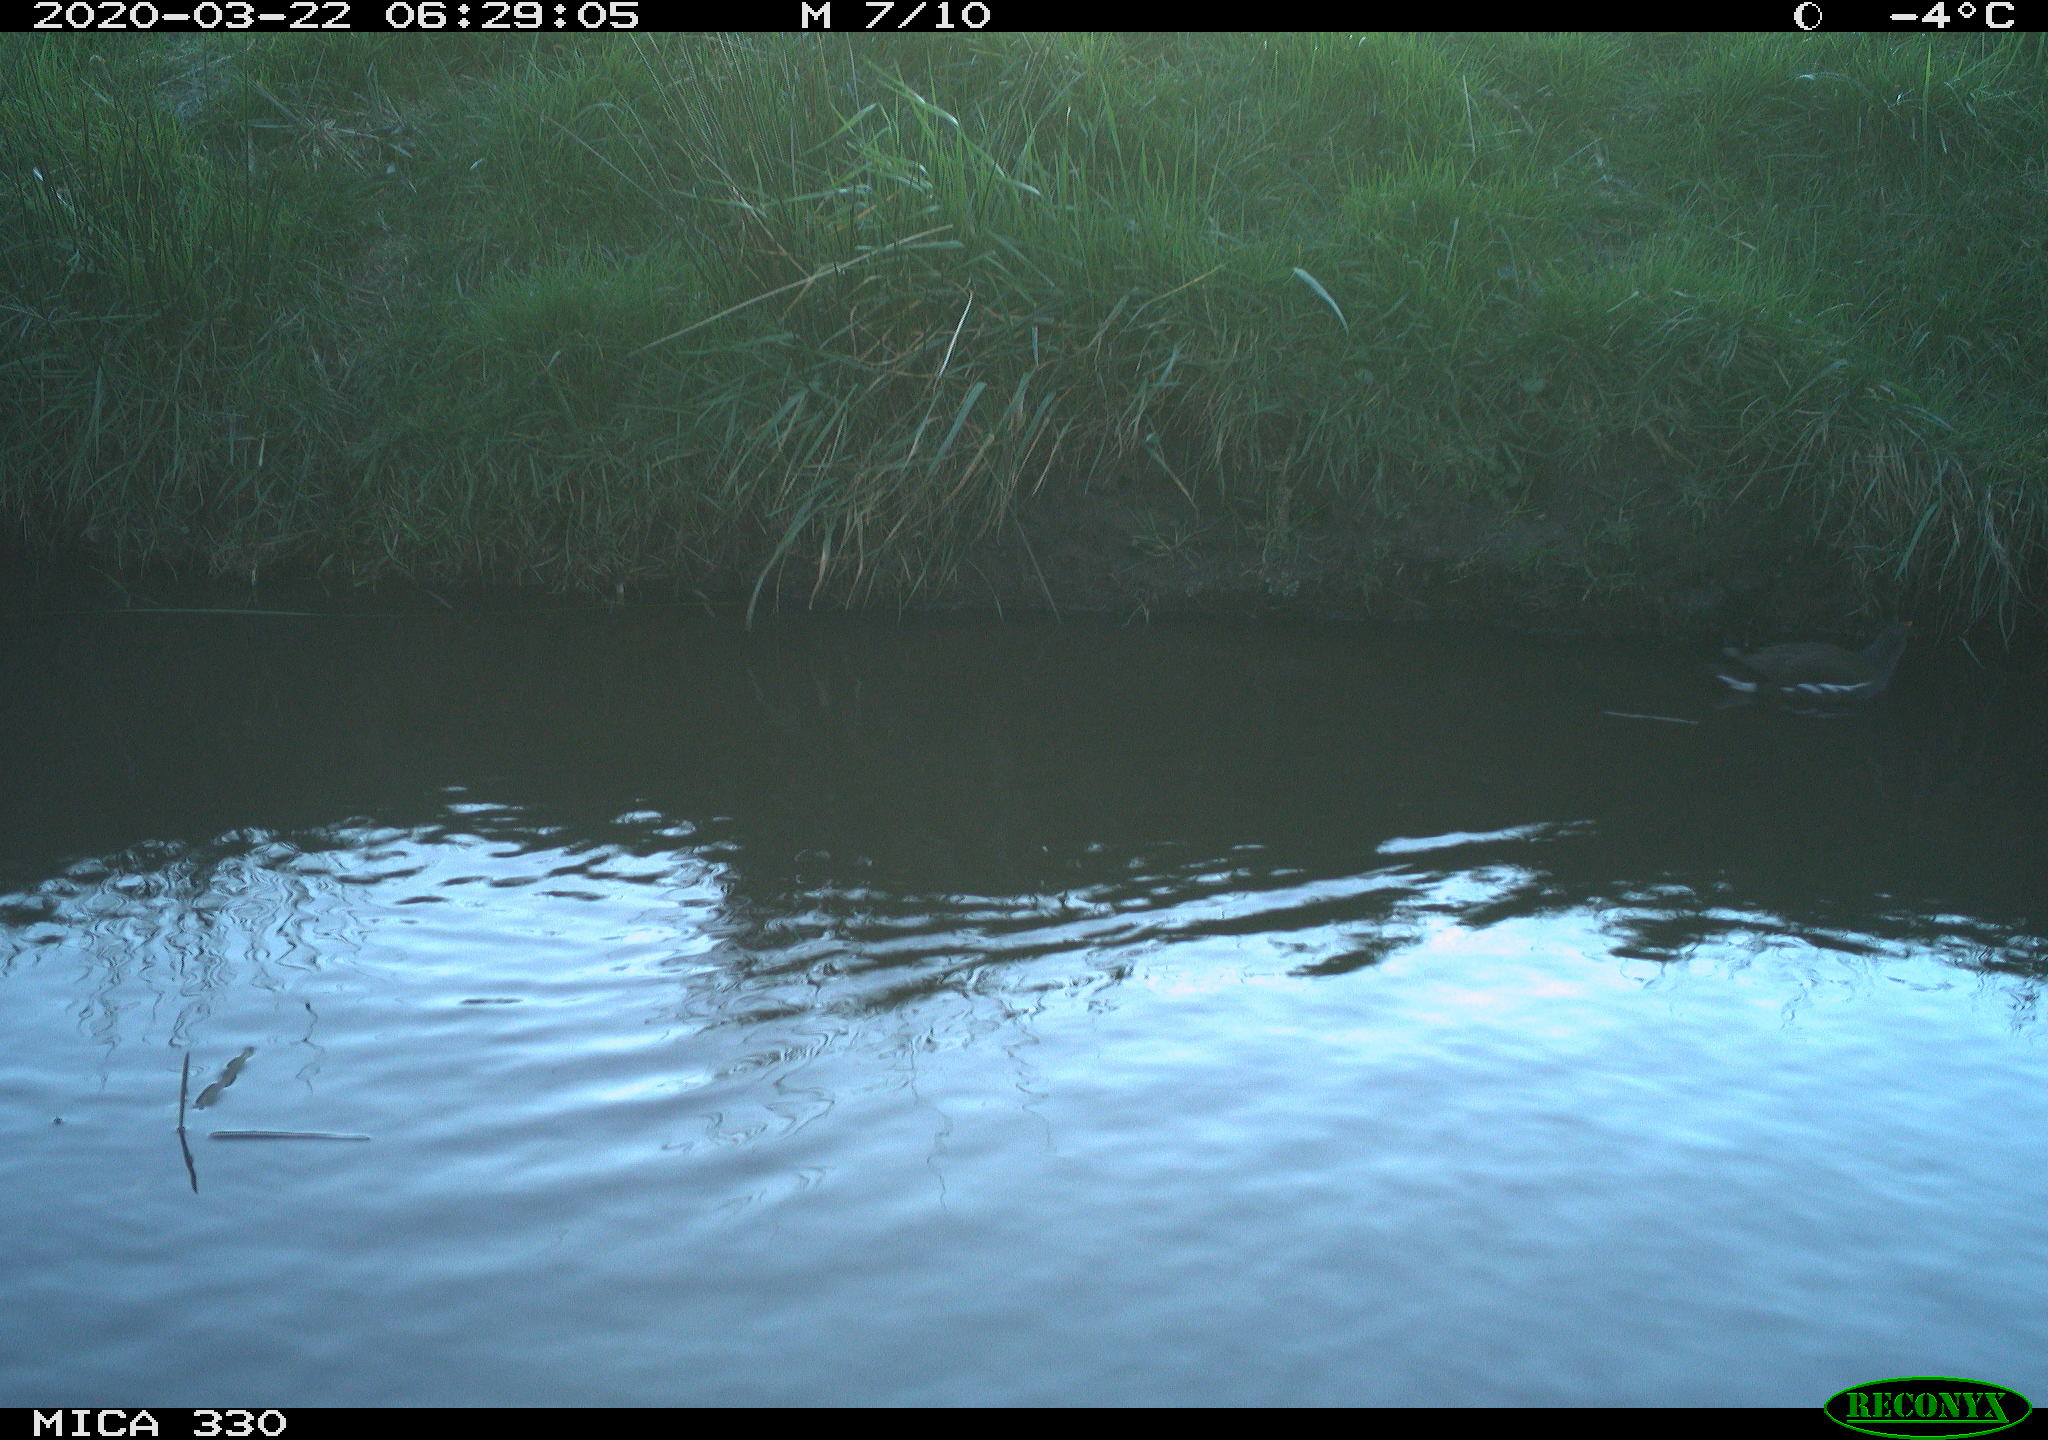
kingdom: Animalia
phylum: Chordata
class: Aves
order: Gruiformes
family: Rallidae
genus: Gallinula
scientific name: Gallinula chloropus
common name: Common moorhen
